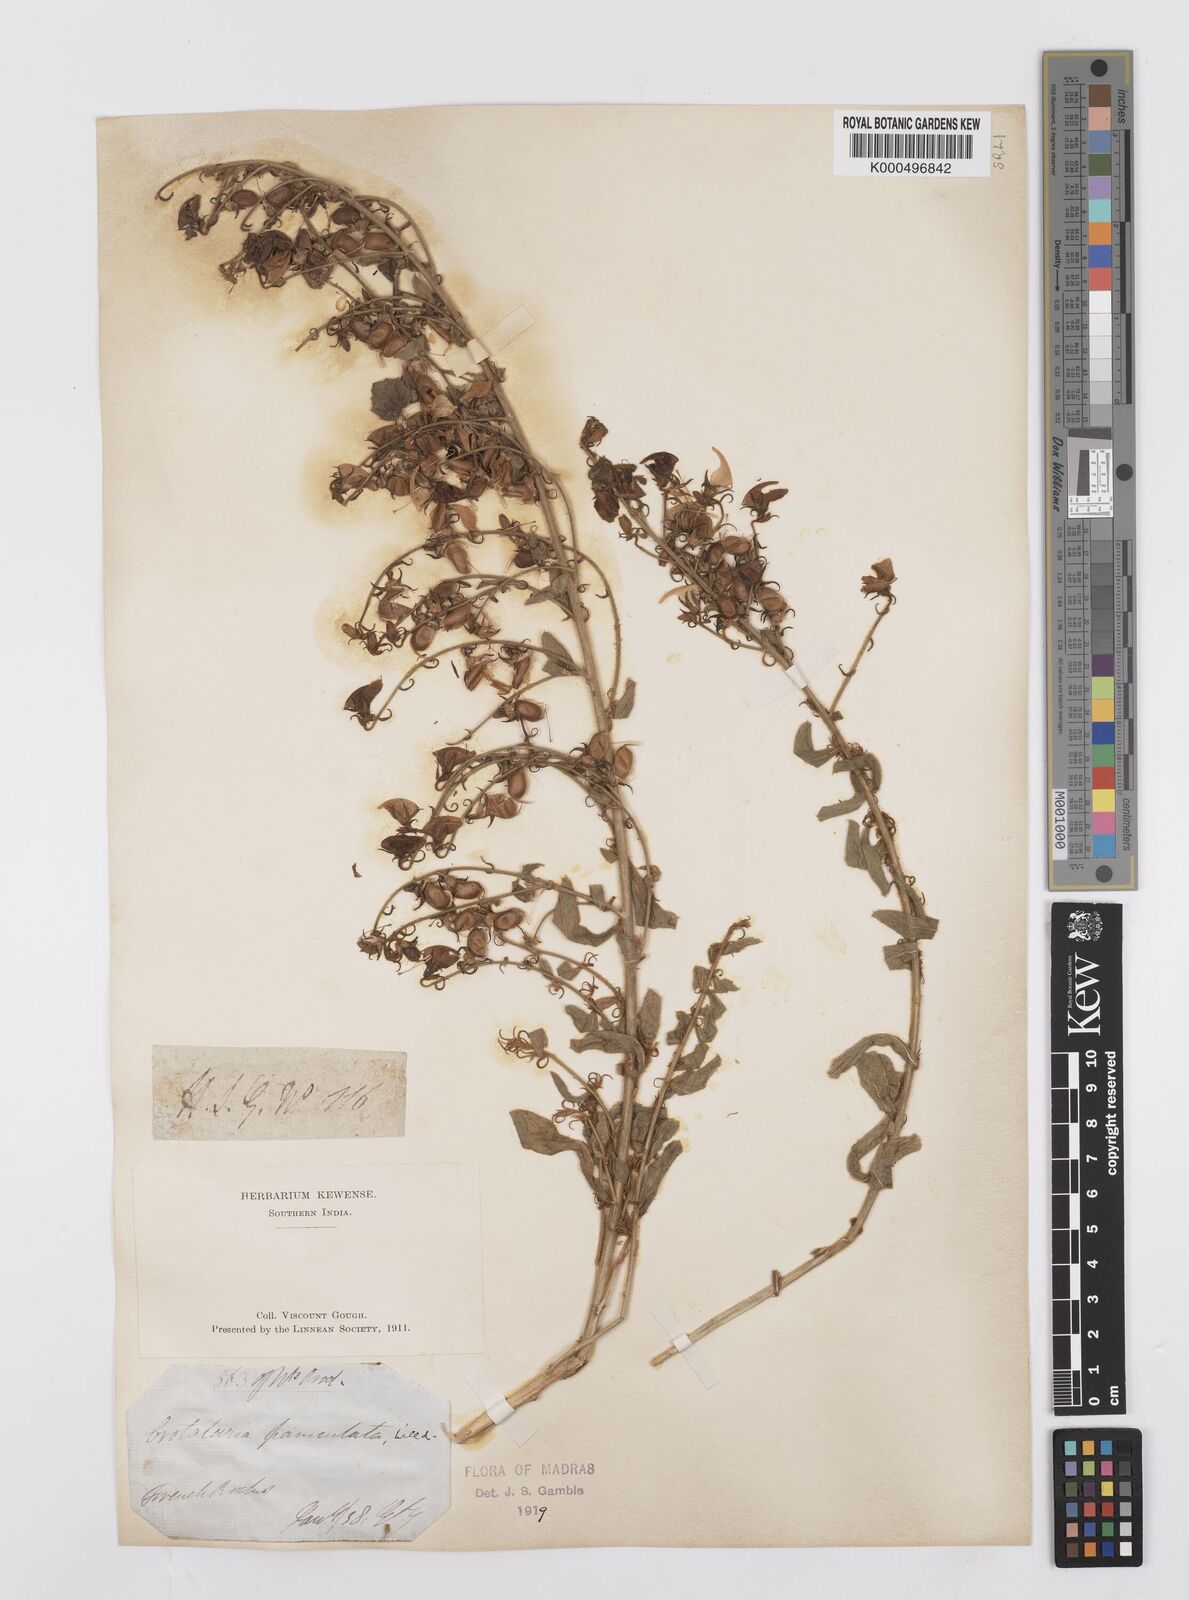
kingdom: Plantae
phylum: Tracheophyta
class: Magnoliopsida
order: Fabales
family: Fabaceae
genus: Crotalaria
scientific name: Crotalaria paniculata
